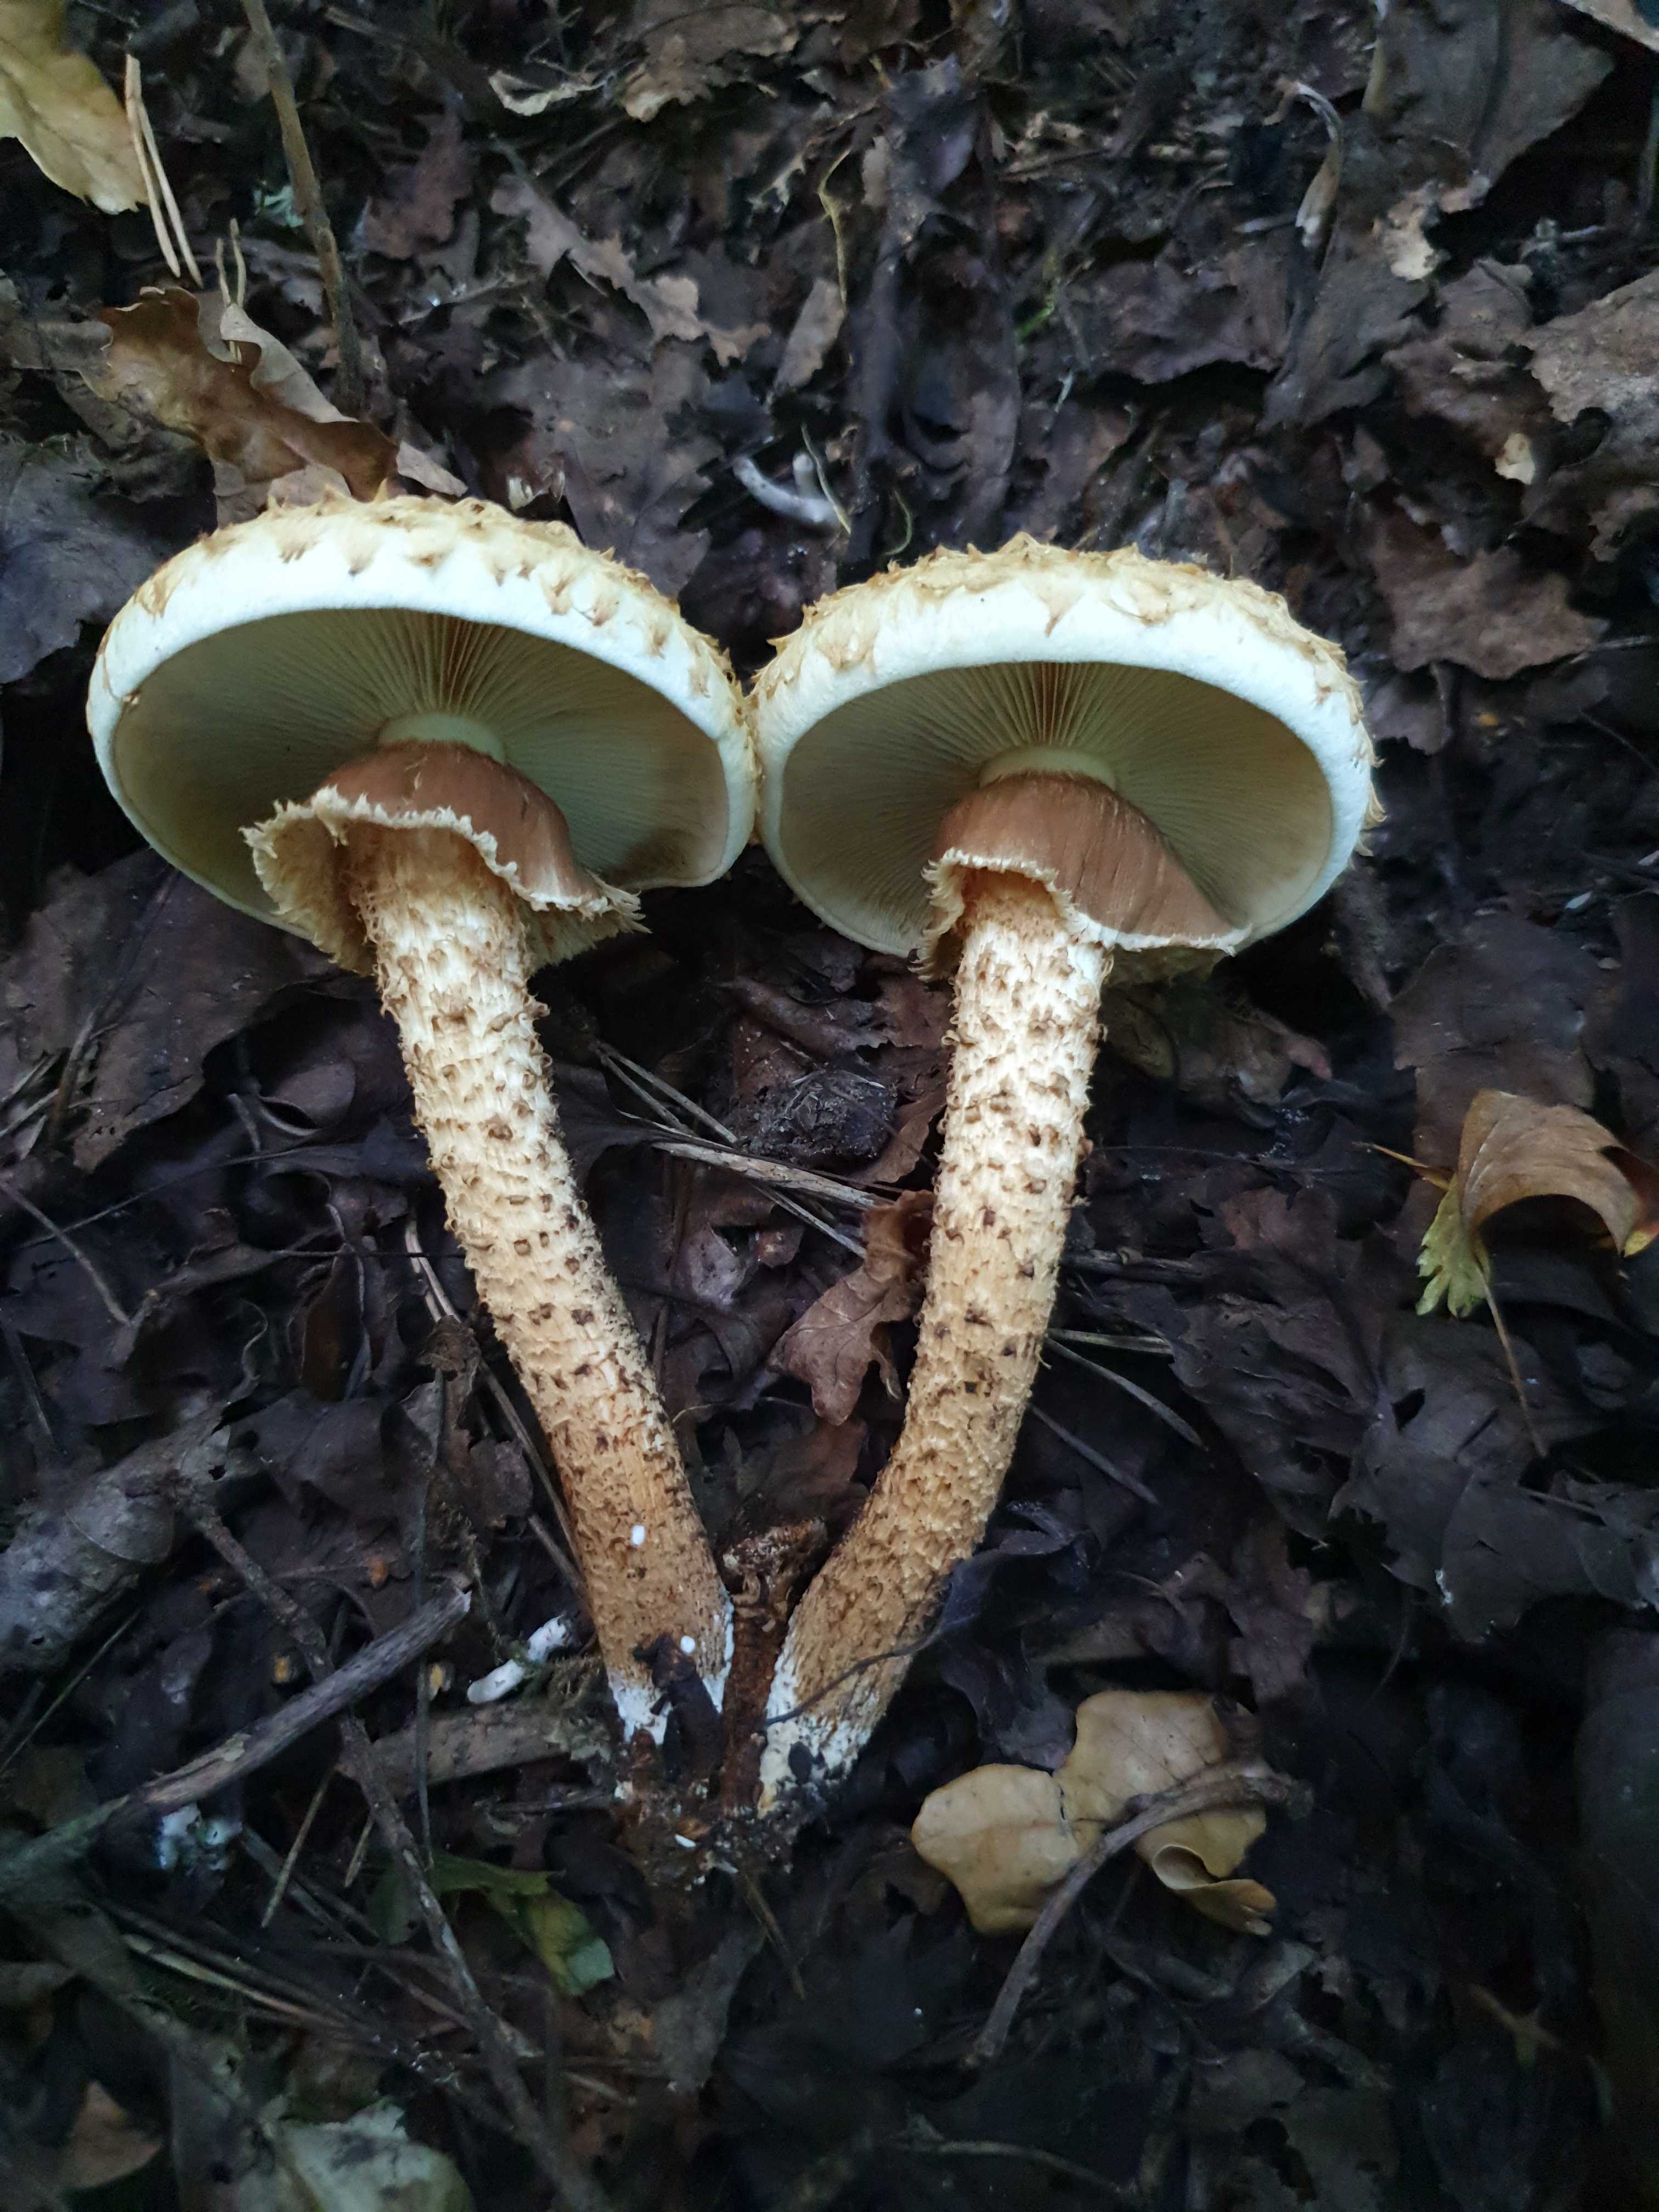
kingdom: Fungi
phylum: Basidiomycota
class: Agaricomycetes
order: Agaricales
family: Strophariaceae
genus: Pholiota
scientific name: Pholiota squarrosa
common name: krumskællet skælhat
